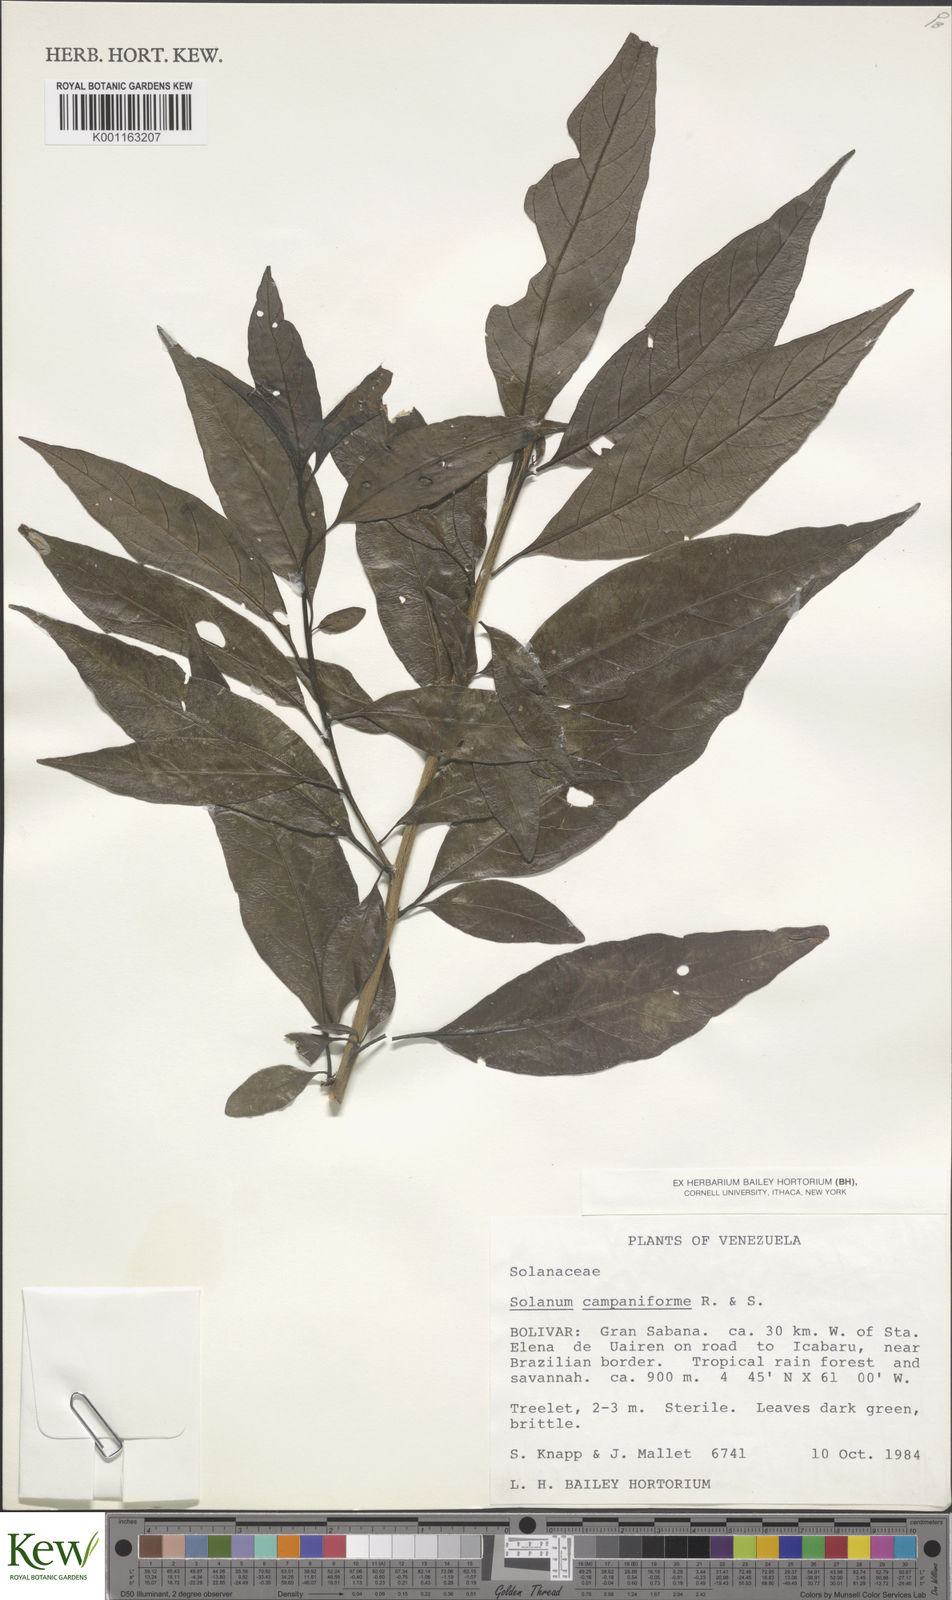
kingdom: Plantae
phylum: Tracheophyta
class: Magnoliopsida
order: Solanales
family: Solanaceae
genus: Solanum
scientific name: Solanum campaniforme
